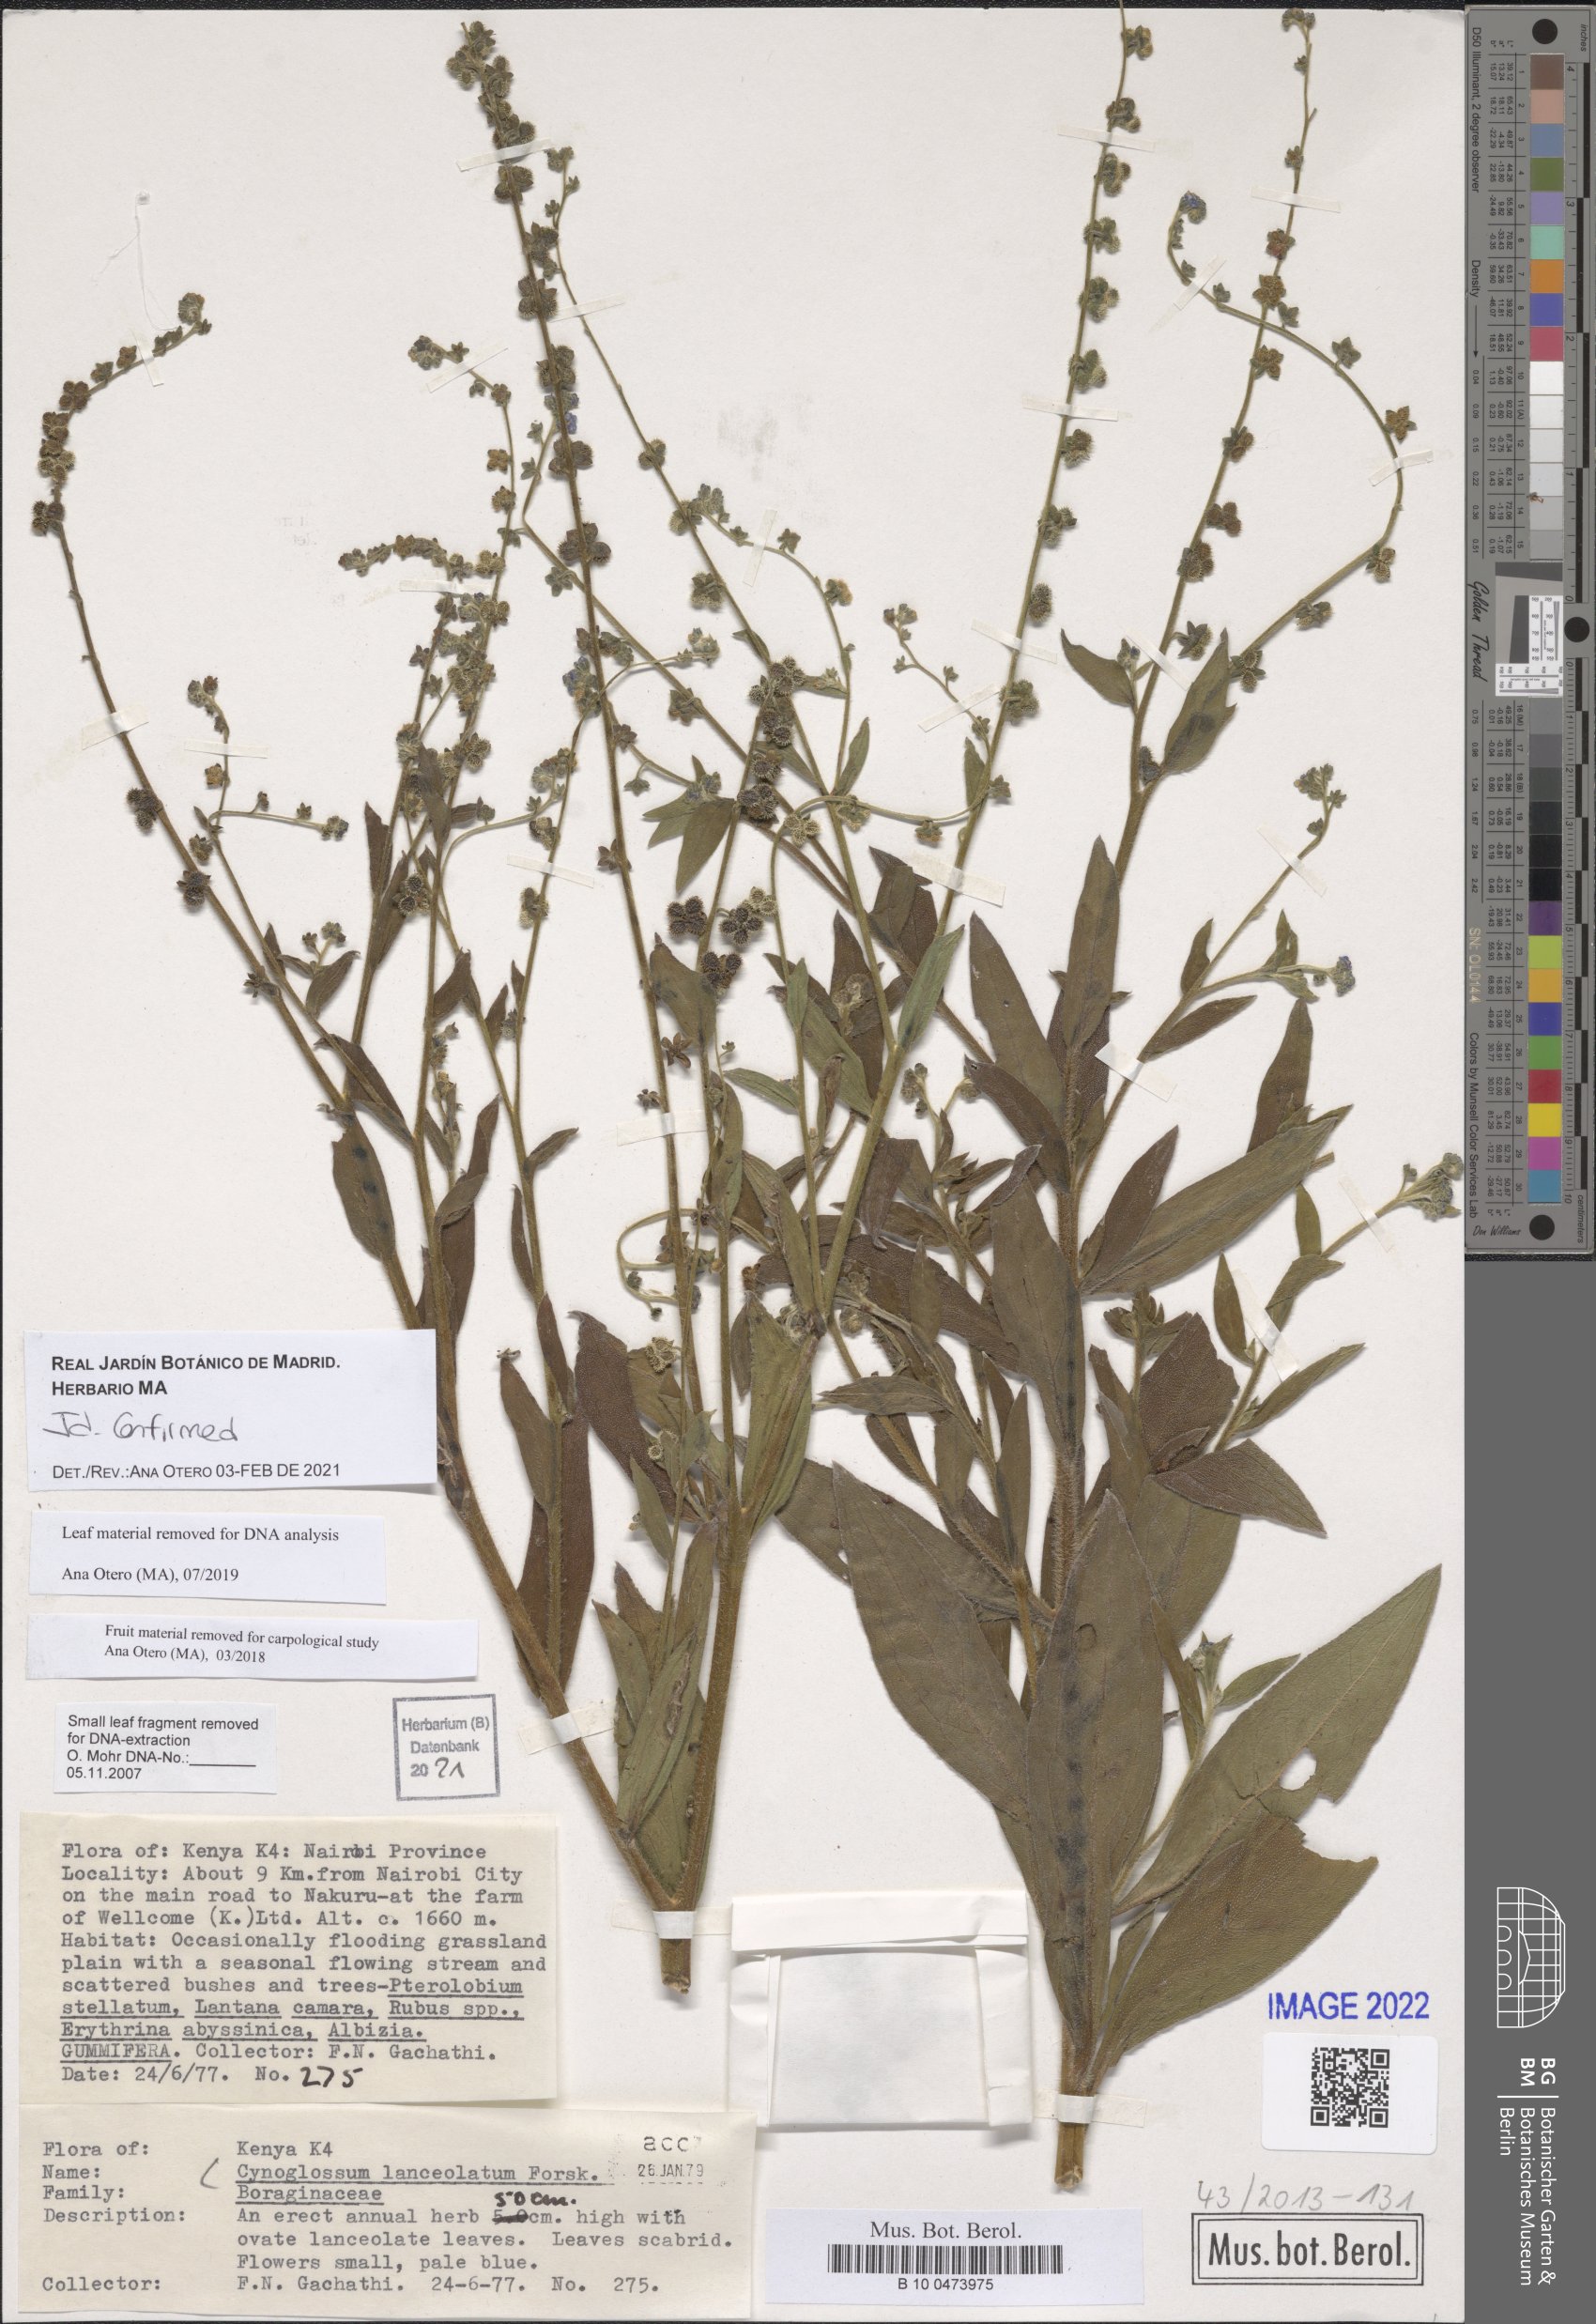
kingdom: Plantae
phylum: Tracheophyta
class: Magnoliopsida
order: Boraginales
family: Boraginaceae
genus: Paracynoglossum
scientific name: Paracynoglossum lanceolatum
